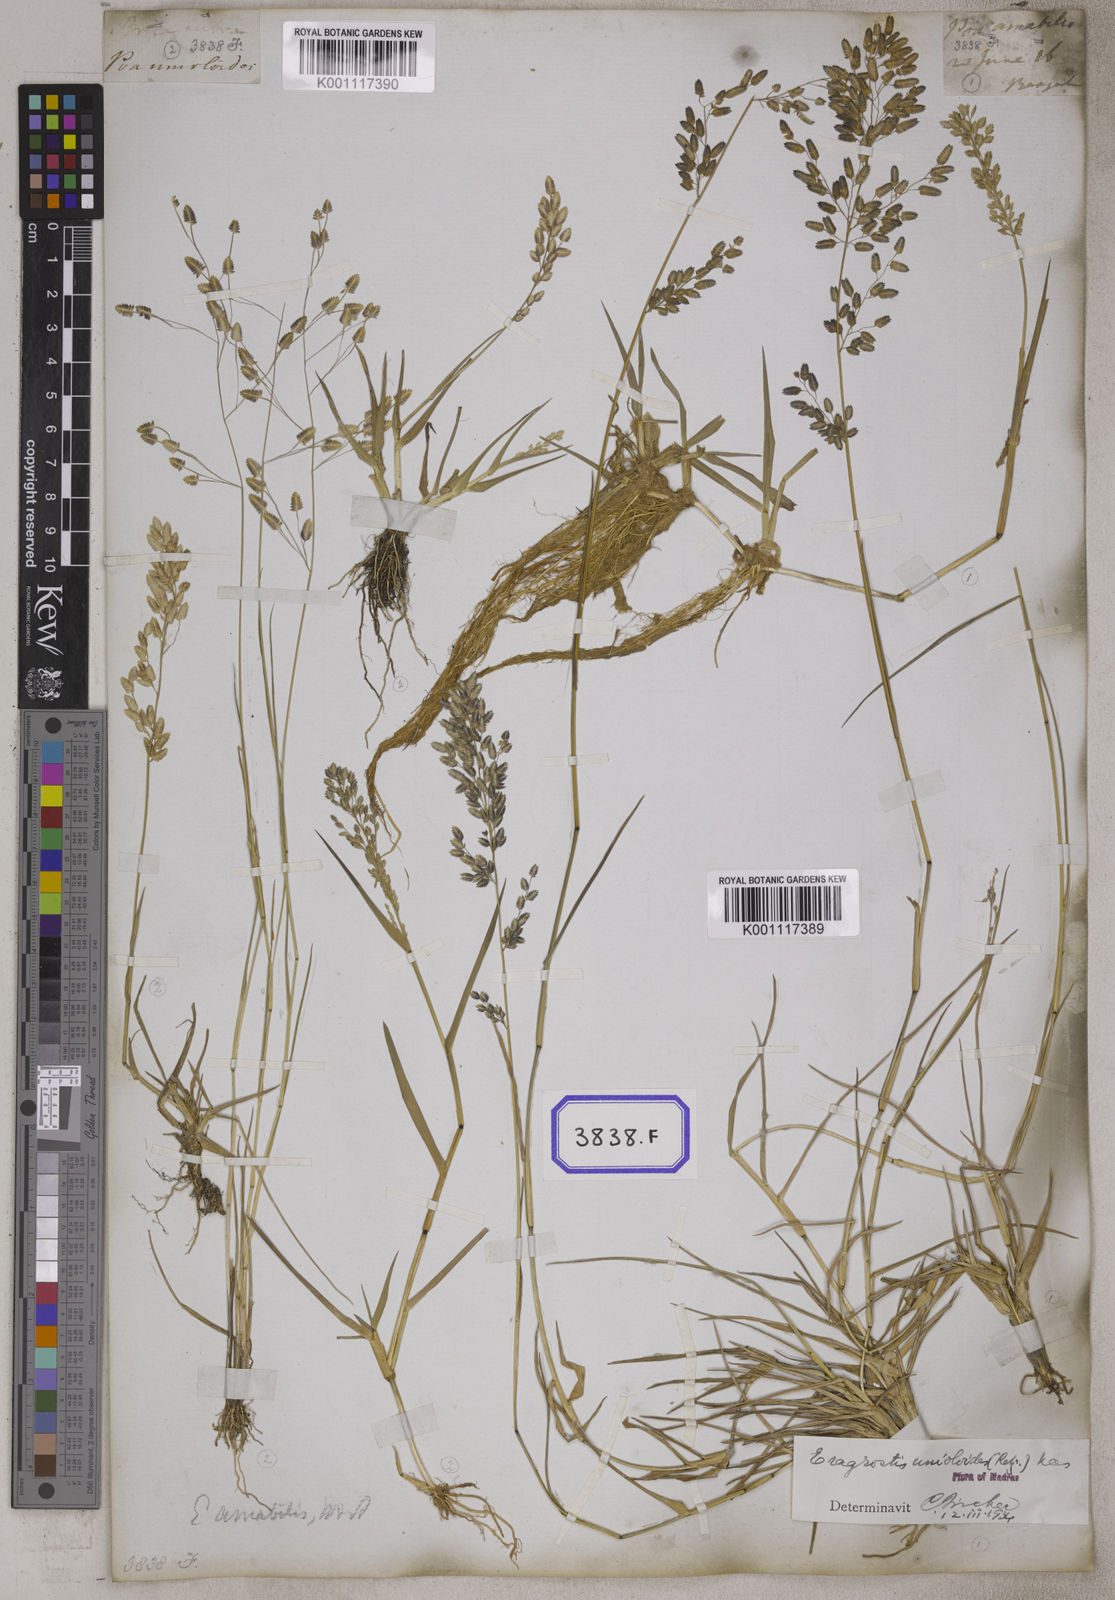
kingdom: Plantae
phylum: Tracheophyta
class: Liliopsida
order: Poales
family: Poaceae
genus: Eragrostis
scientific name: Eragrostis
